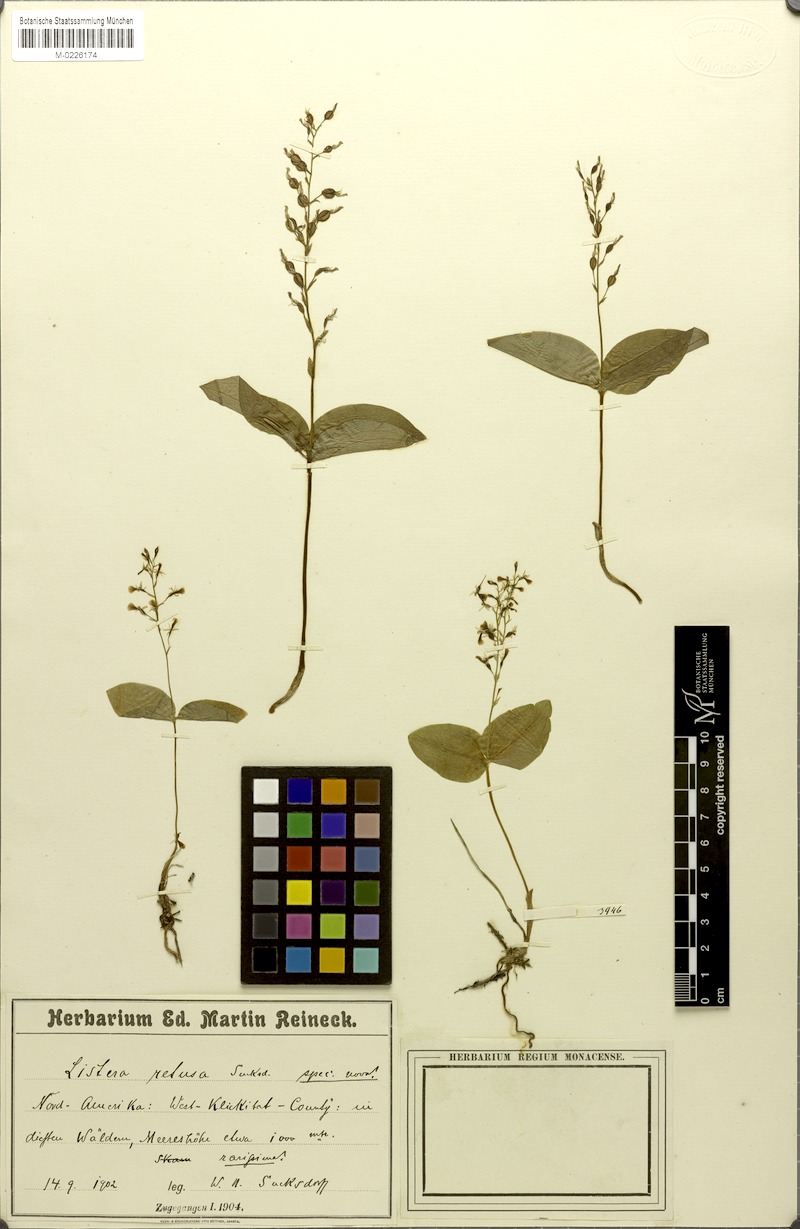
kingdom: Plantae
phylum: Tracheophyta
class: Liliopsida
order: Asparagales
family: Orchidaceae
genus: Neottia
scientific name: Neottia banksiana
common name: Northwestern twayblade
